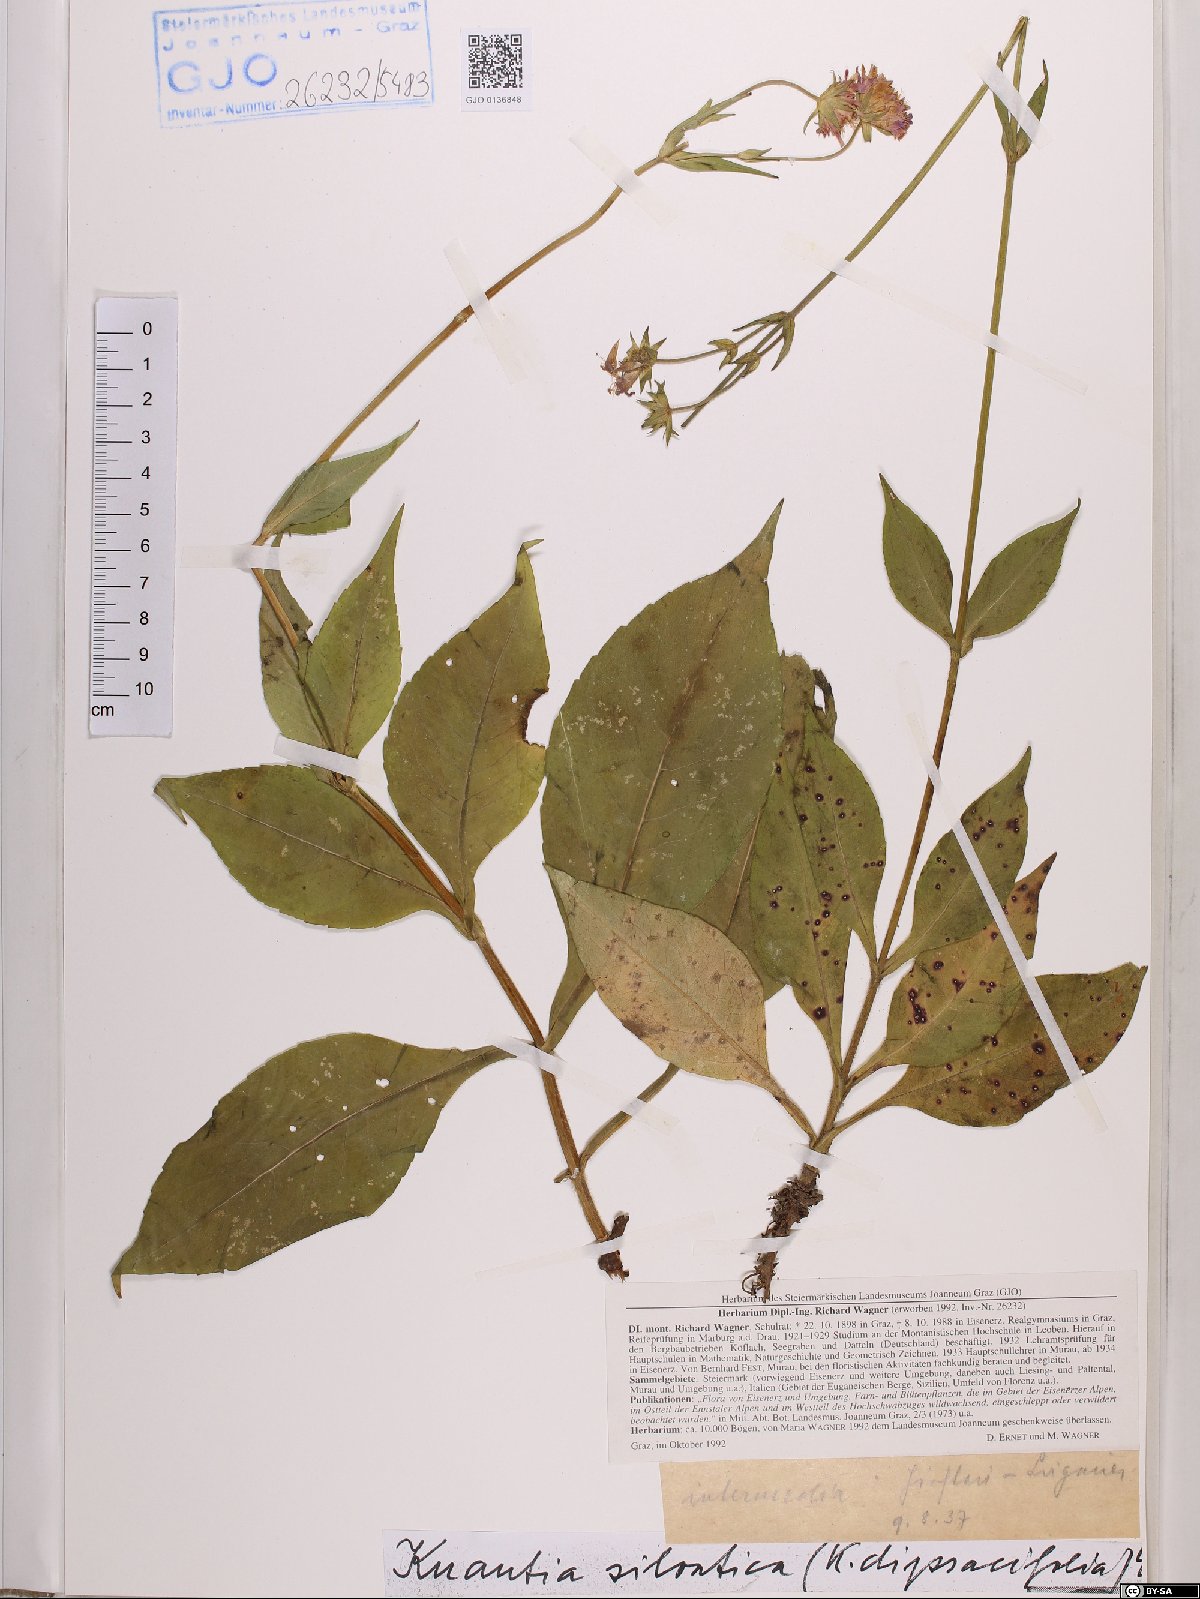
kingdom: Plantae
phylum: Tracheophyta
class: Magnoliopsida
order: Dipsacales
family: Caprifoliaceae
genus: Knautia
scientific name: Knautia drymeia
